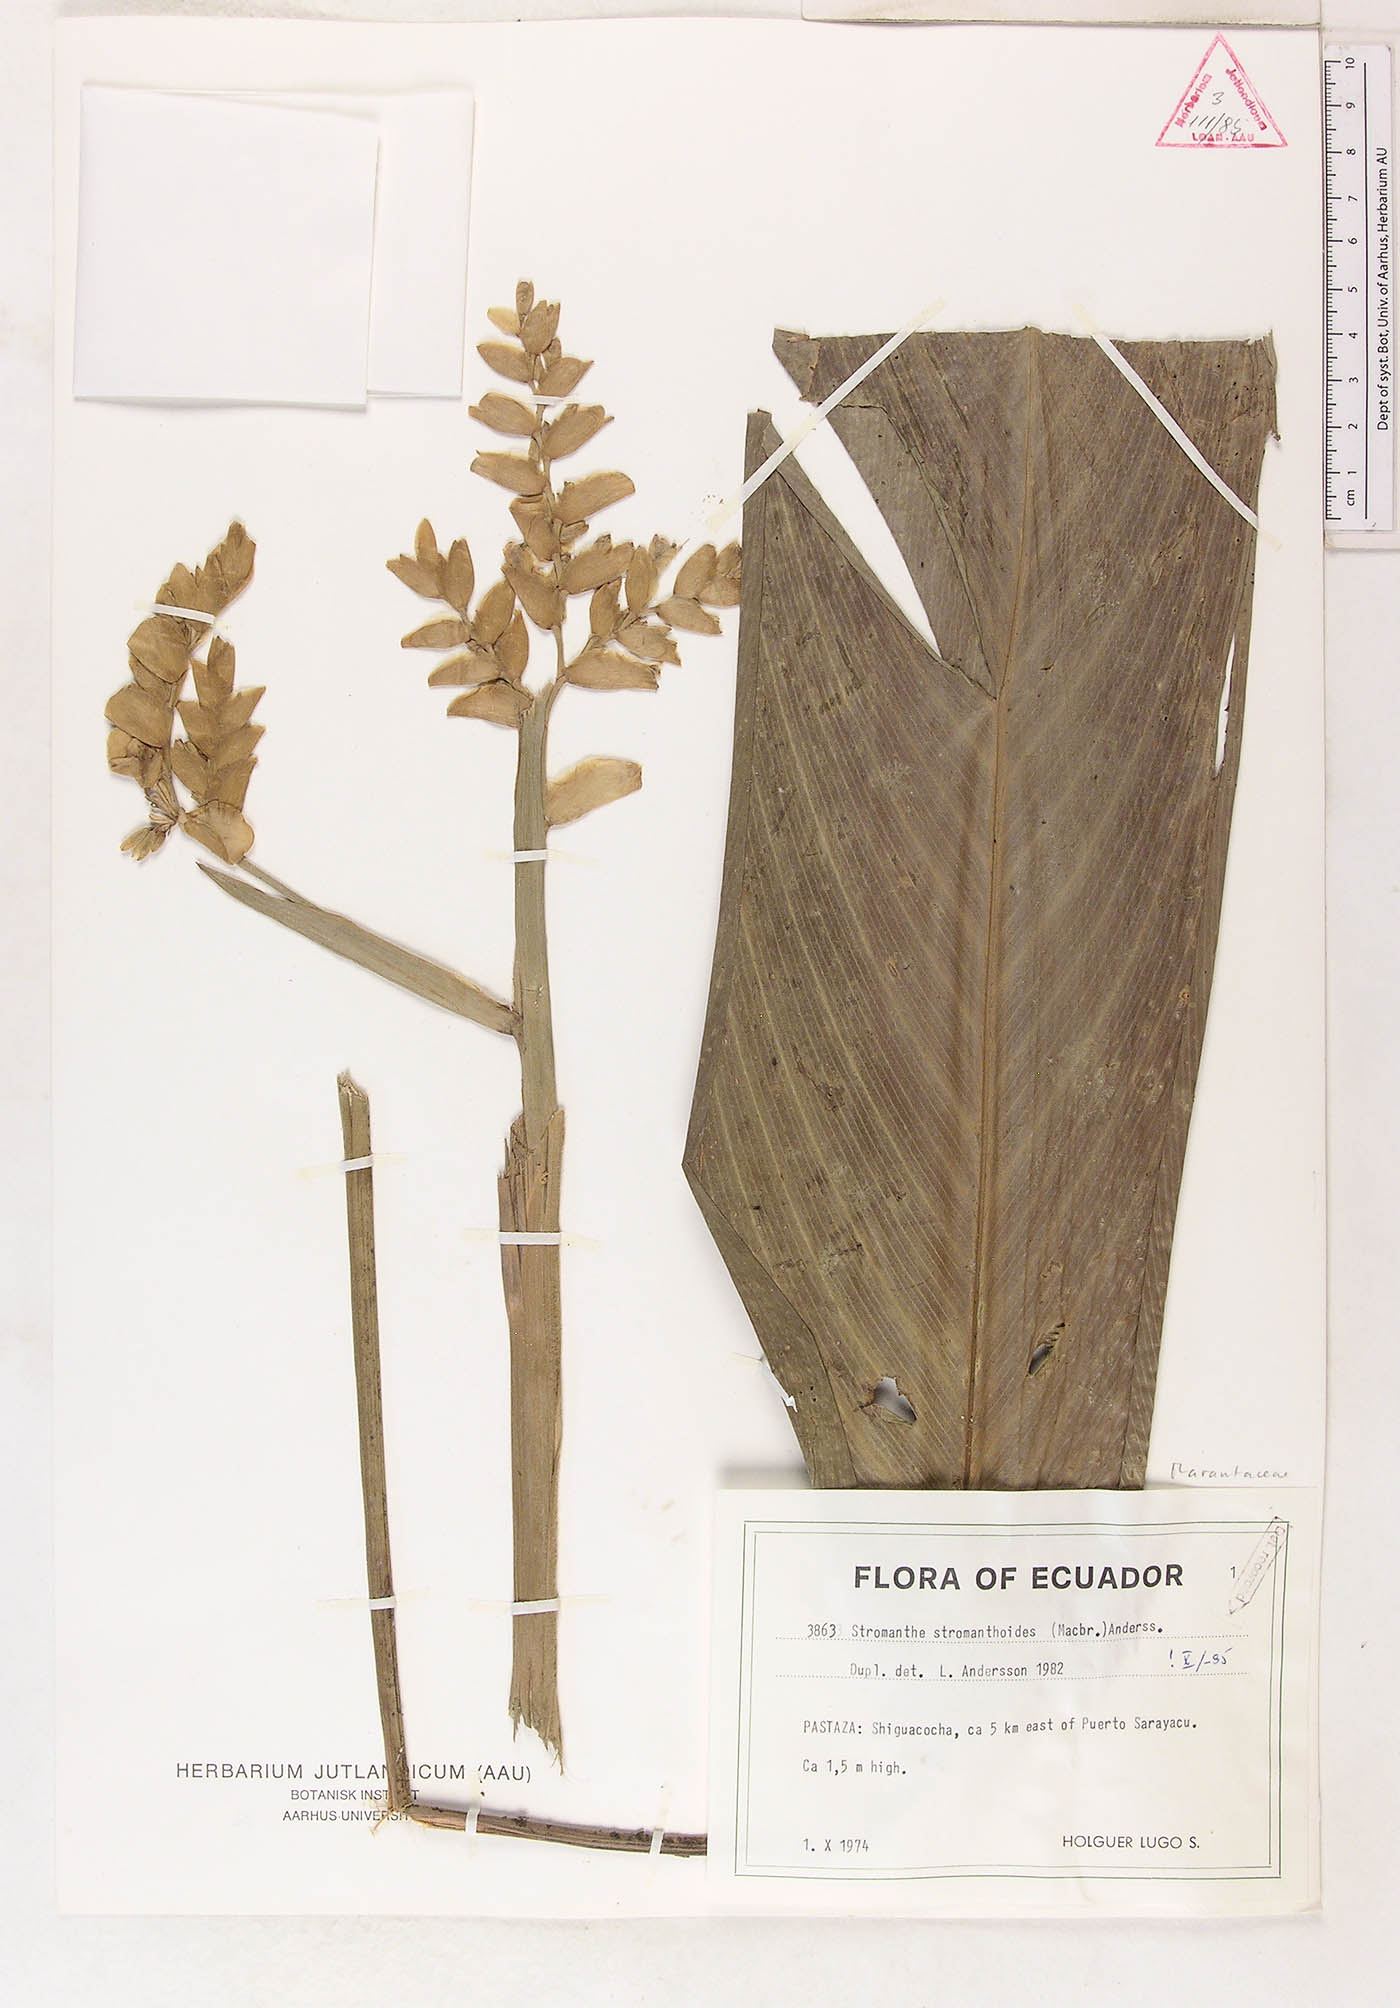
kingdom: Plantae
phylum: Tracheophyta
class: Liliopsida
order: Zingiberales
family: Marantaceae
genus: Stromanthe
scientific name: Stromanthe stromanthoides
